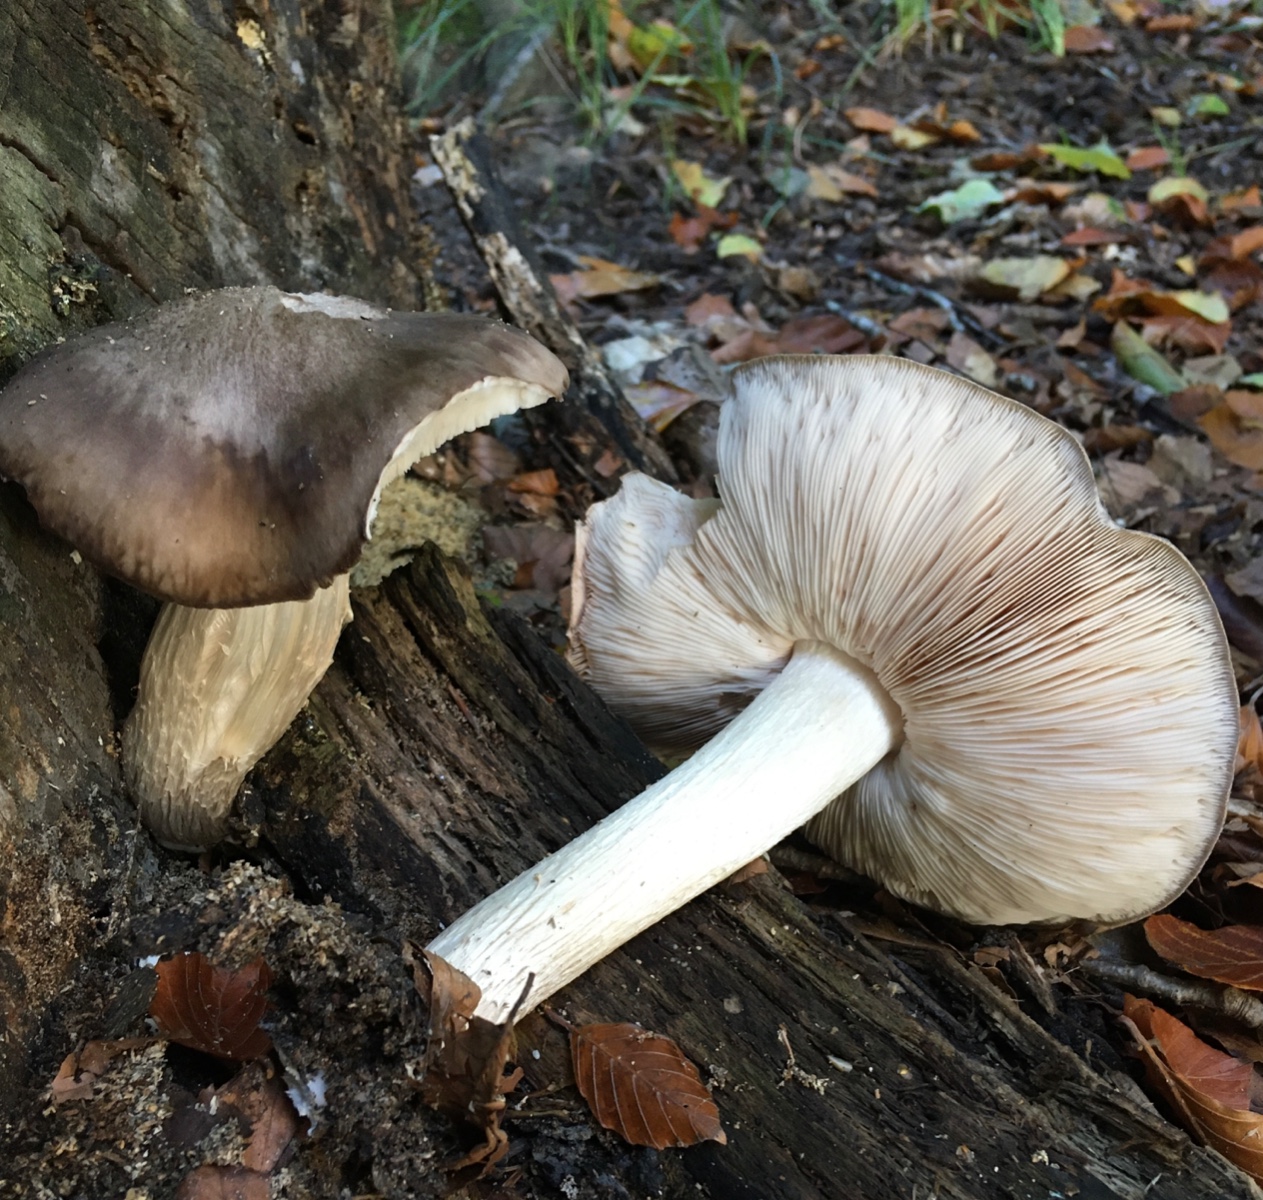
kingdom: Fungi
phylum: Basidiomycota
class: Agaricomycetes
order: Agaricales
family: Pluteaceae
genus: Pluteus
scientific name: Pluteus
